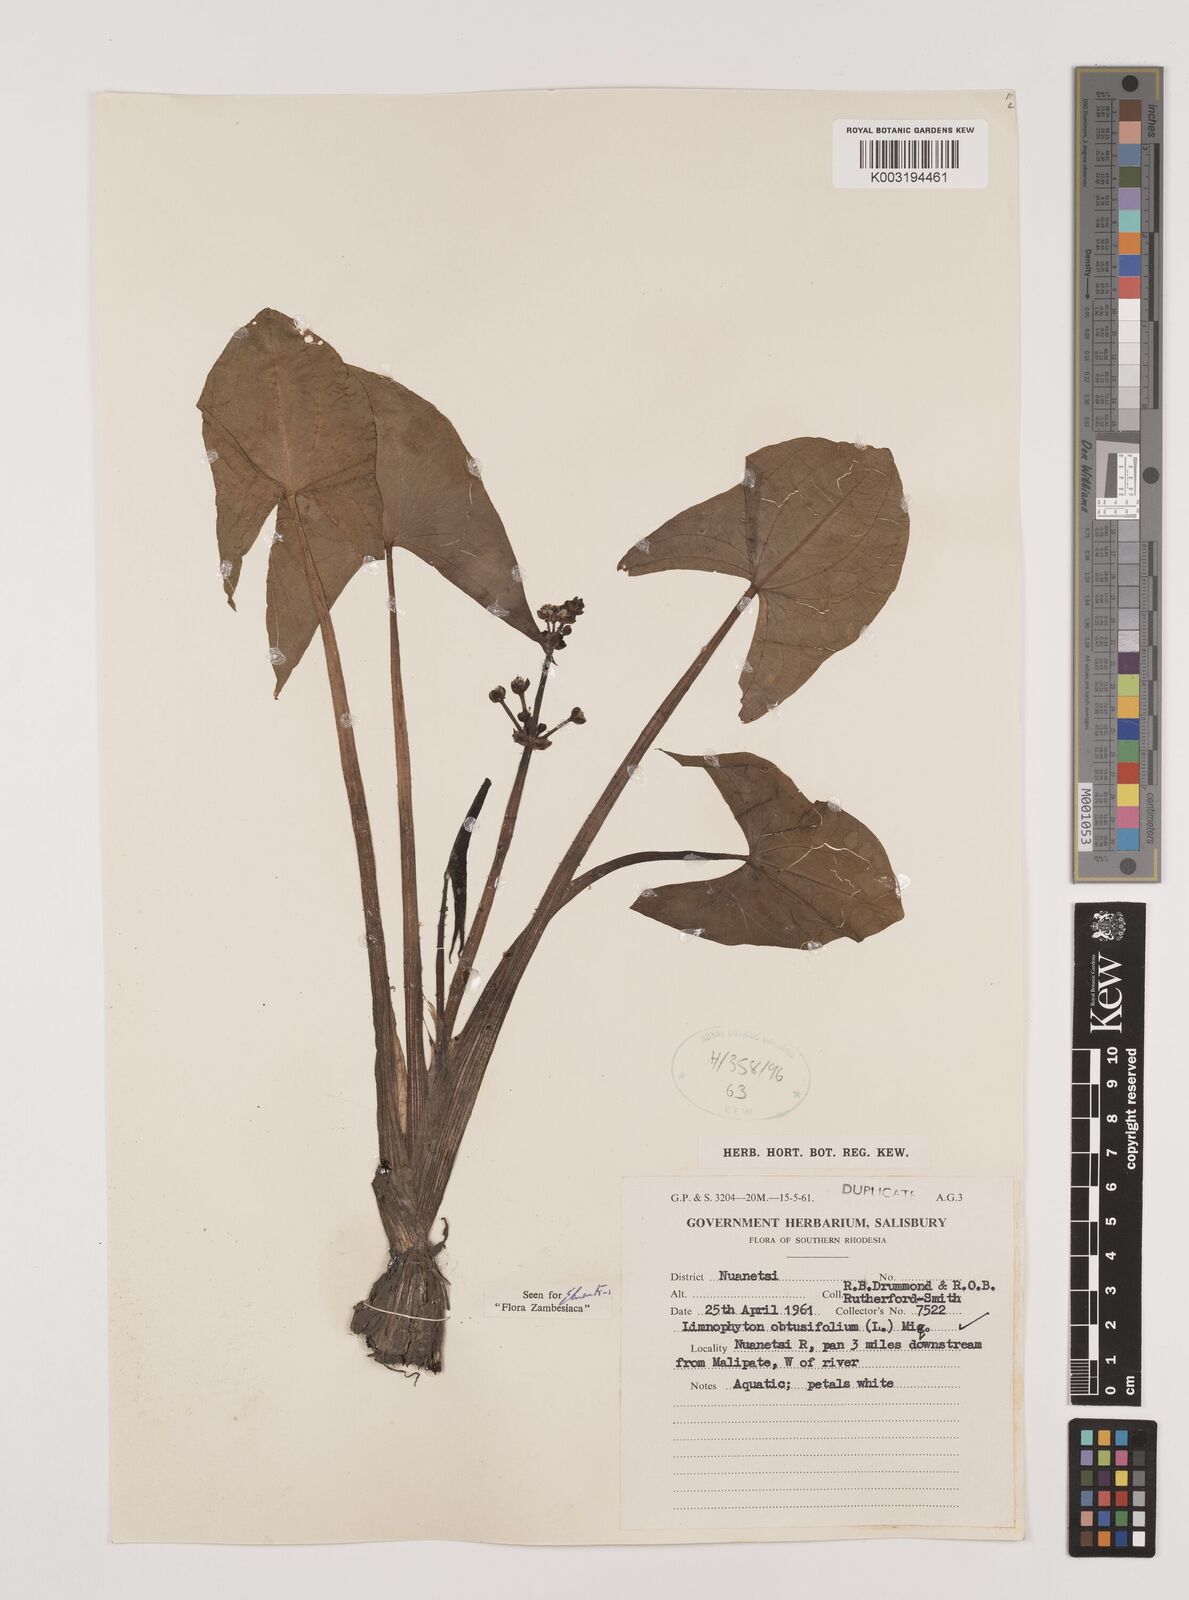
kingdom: Plantae
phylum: Tracheophyta
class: Liliopsida
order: Alismatales
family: Alismataceae
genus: Limnophyton
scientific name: Limnophyton obtusifolium
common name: Arrow head
